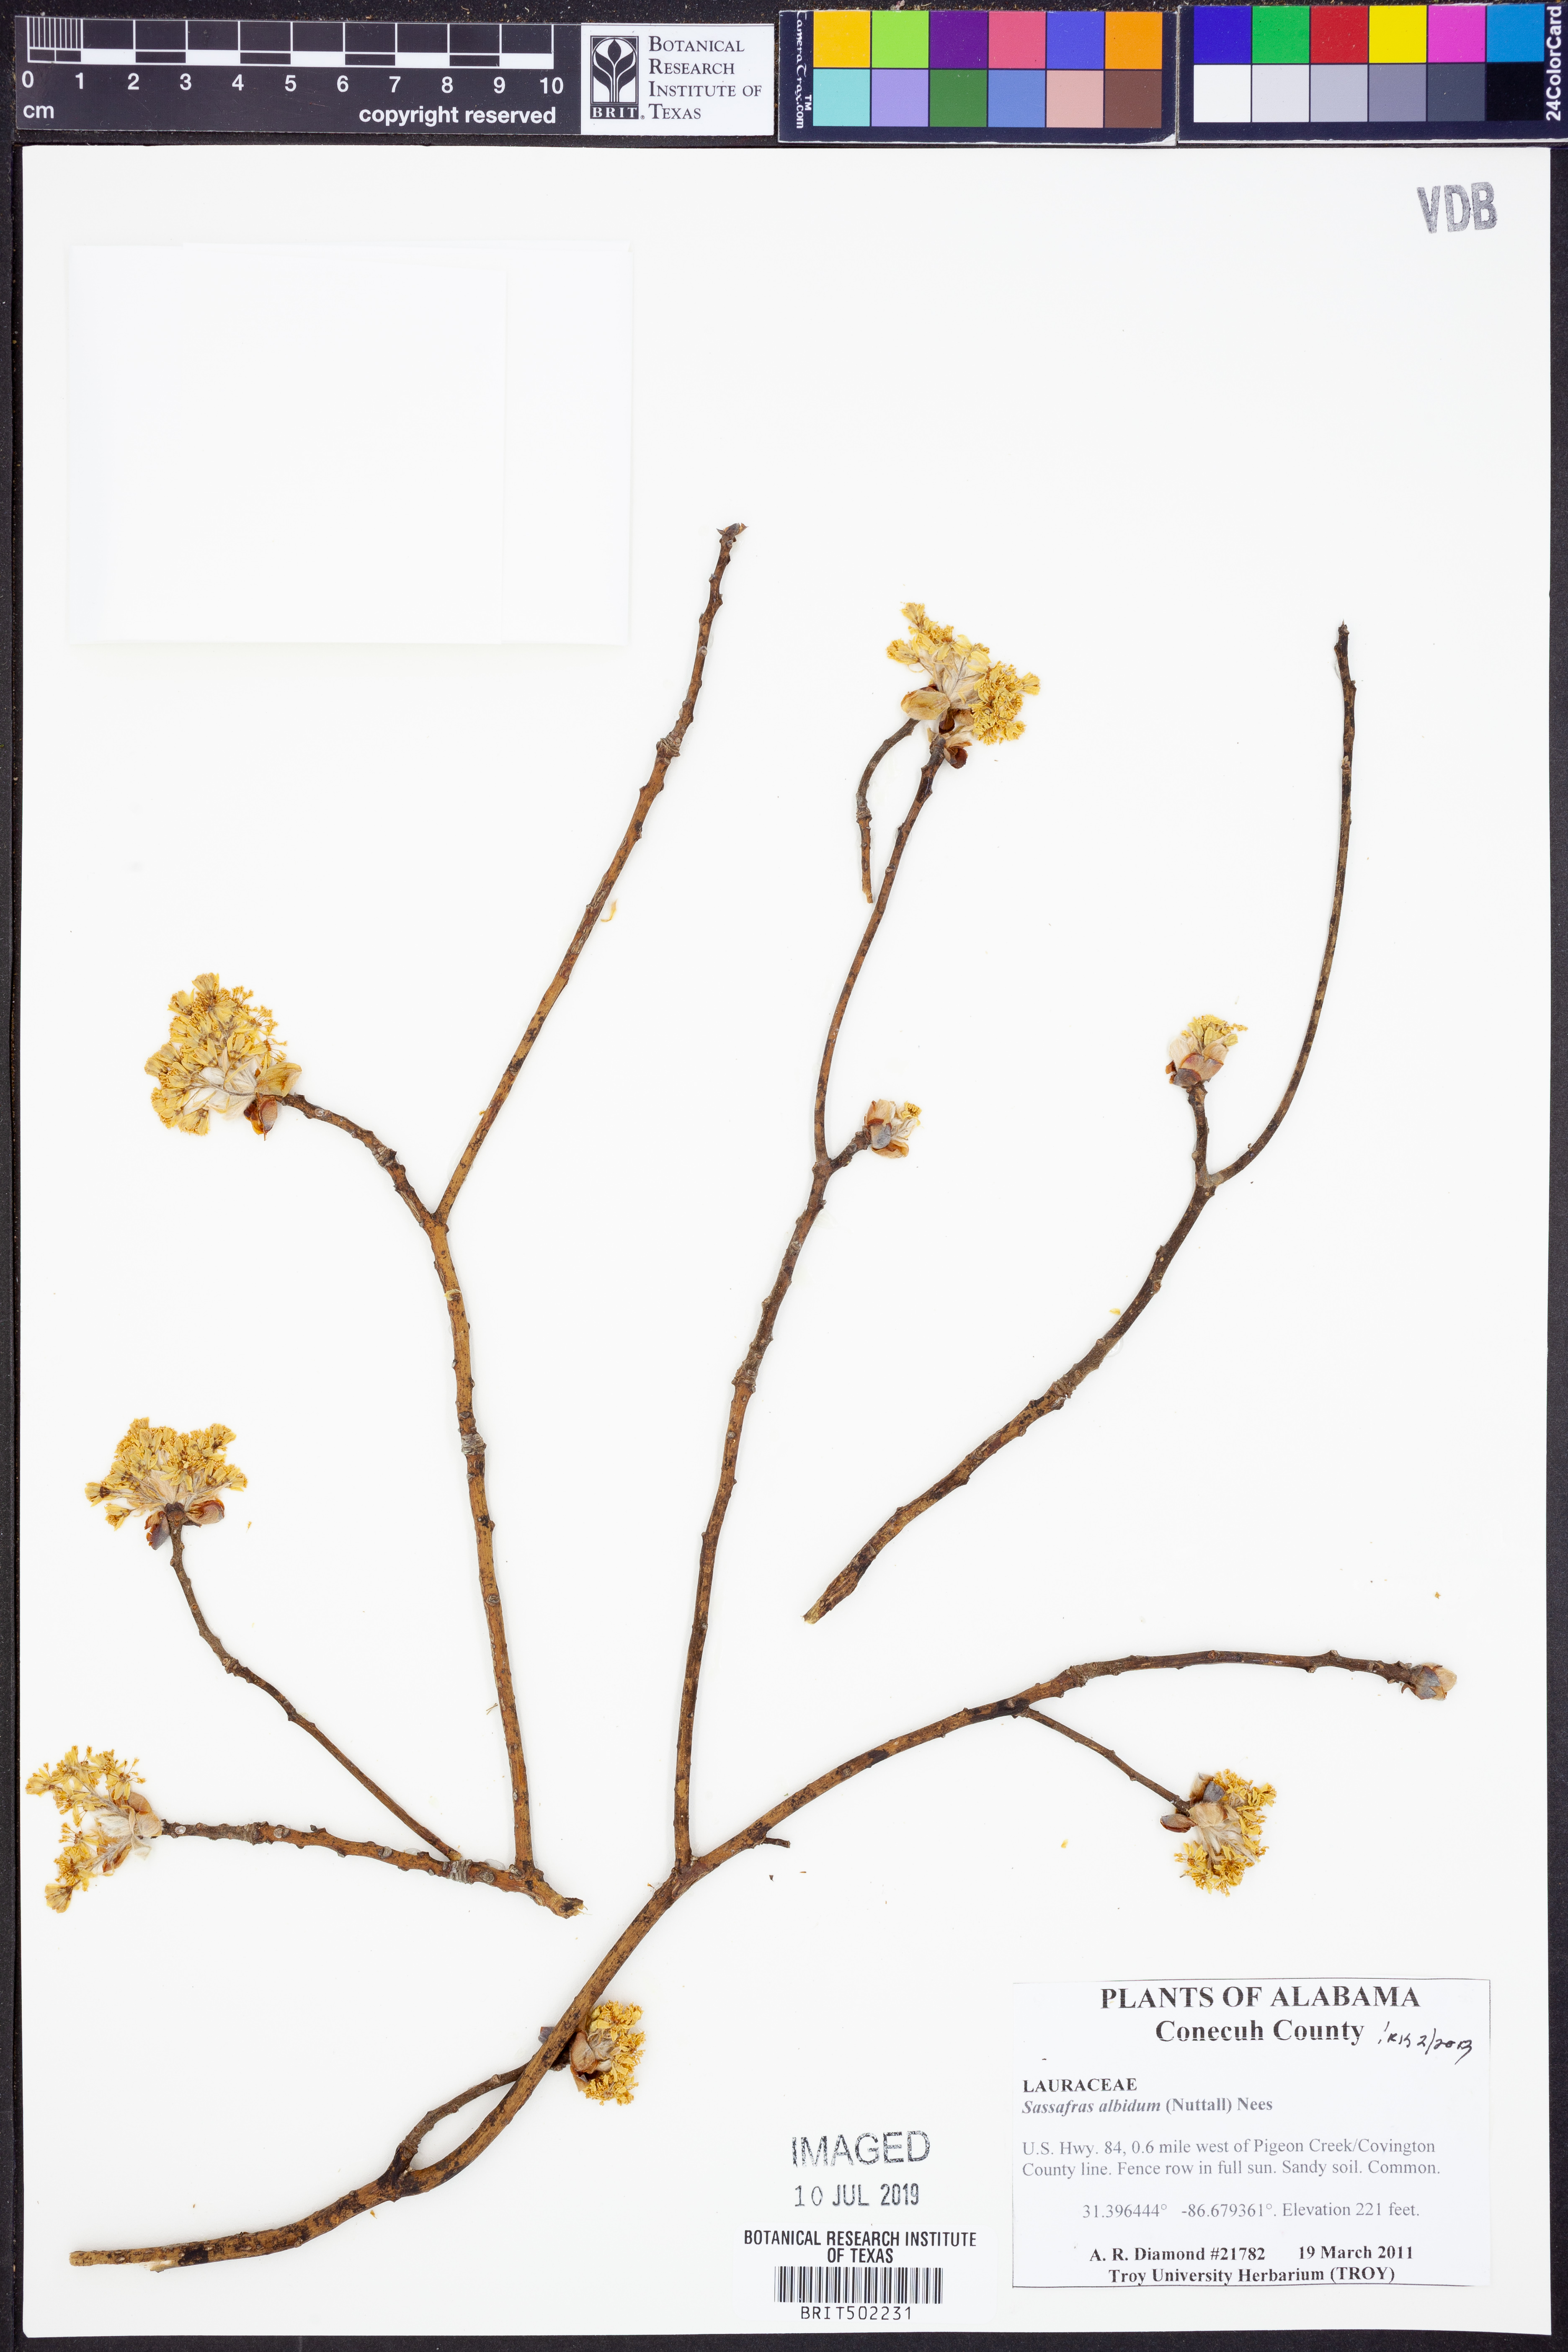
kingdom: Plantae
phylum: Tracheophyta
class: Magnoliopsida
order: Laurales
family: Lauraceae
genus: Sassafras
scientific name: Sassafras albidum
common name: Sassafras
